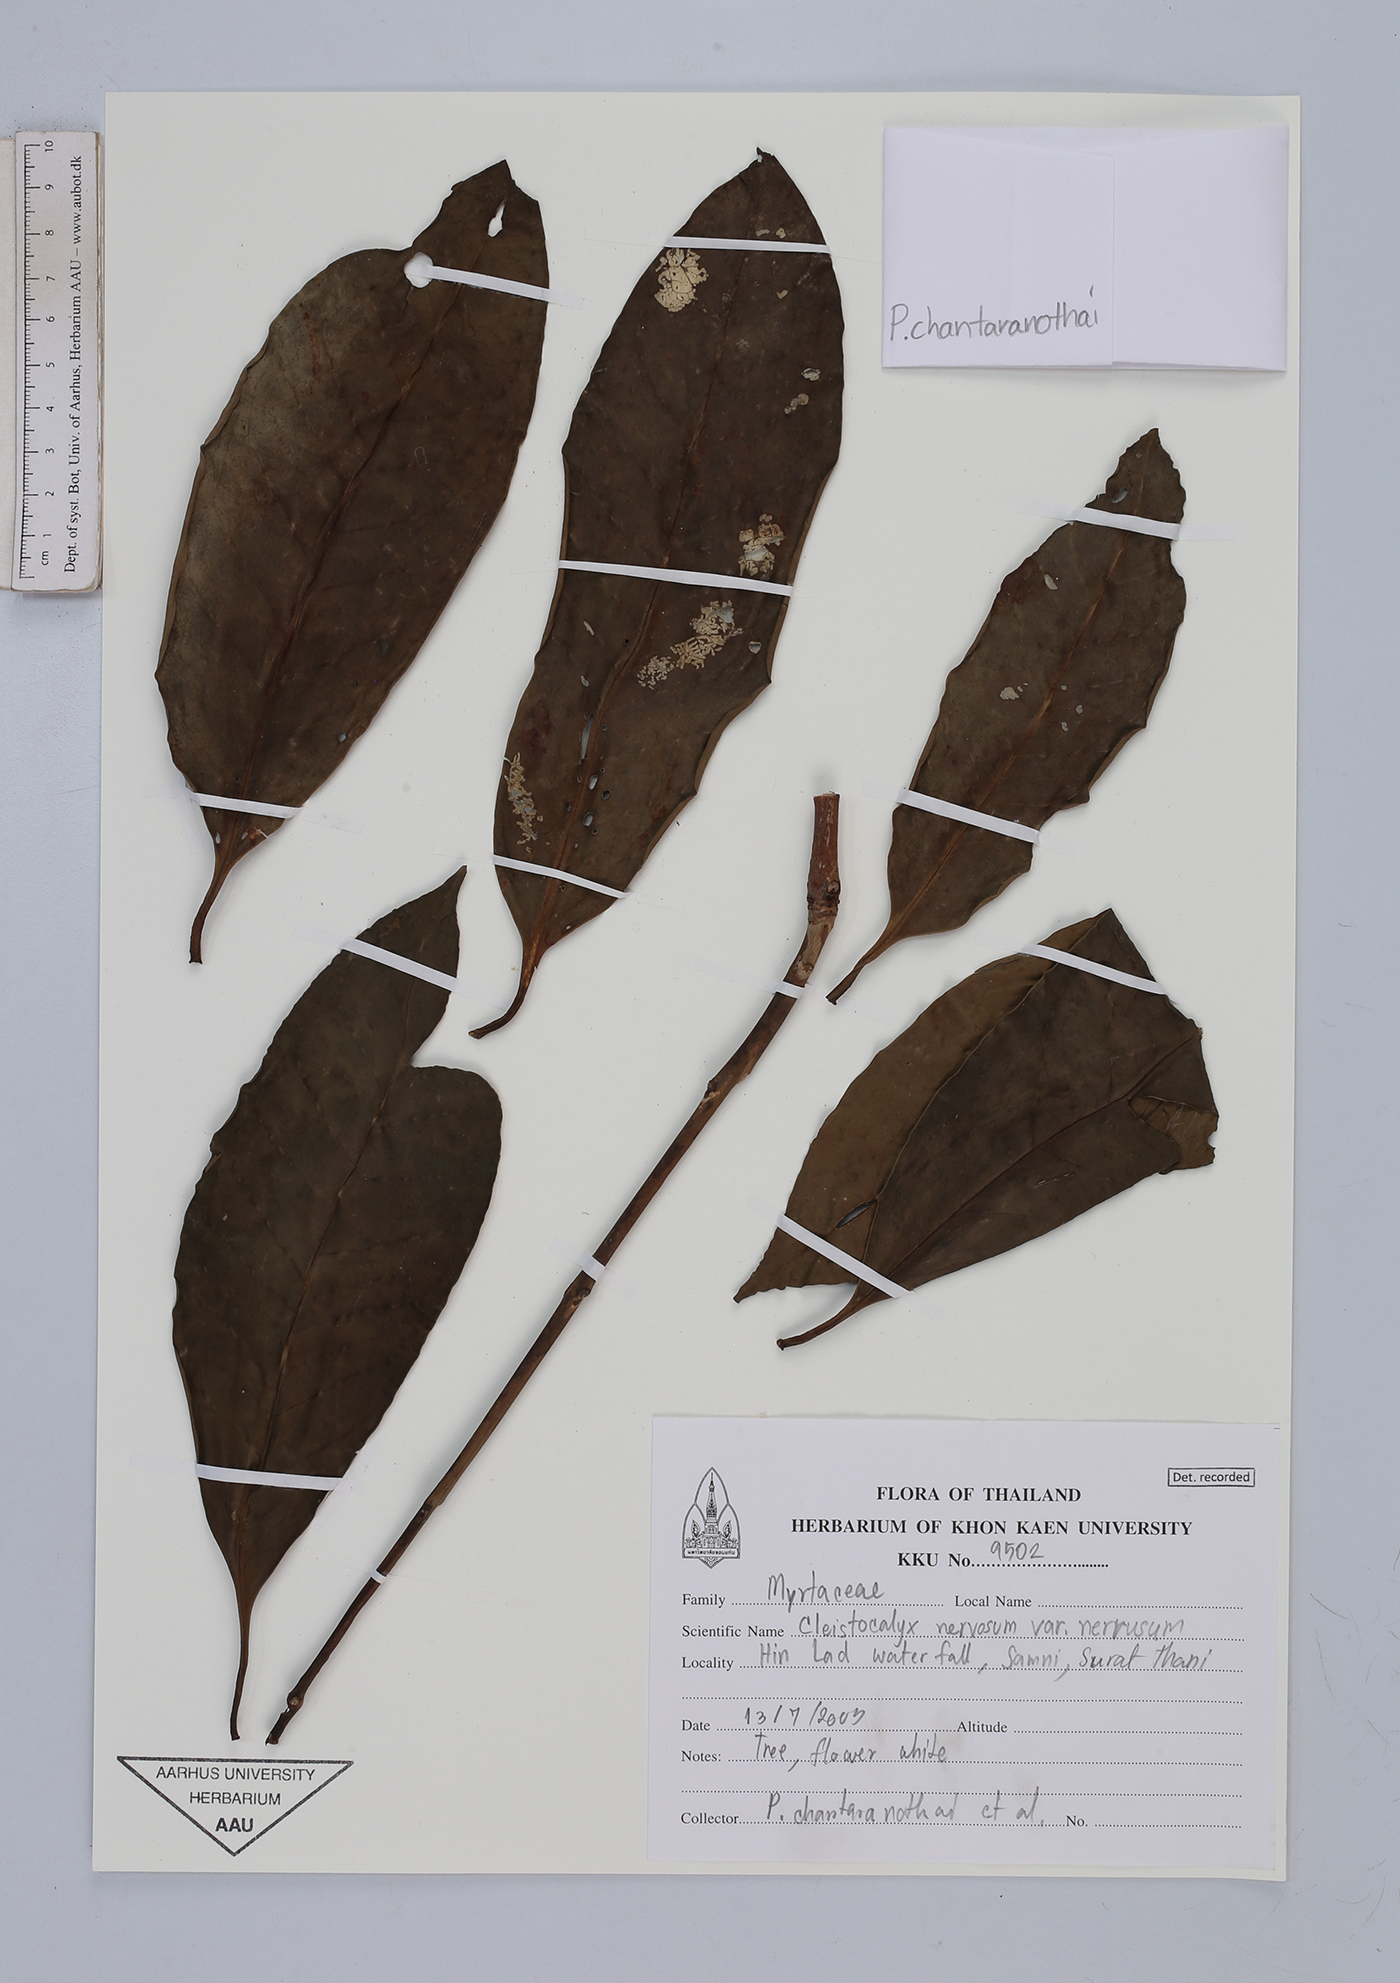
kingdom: Plantae
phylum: Tracheophyta
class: Magnoliopsida
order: Myrtales
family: Myrtaceae
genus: Syzygium
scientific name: Syzygium nervosum
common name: Daly river satinash
